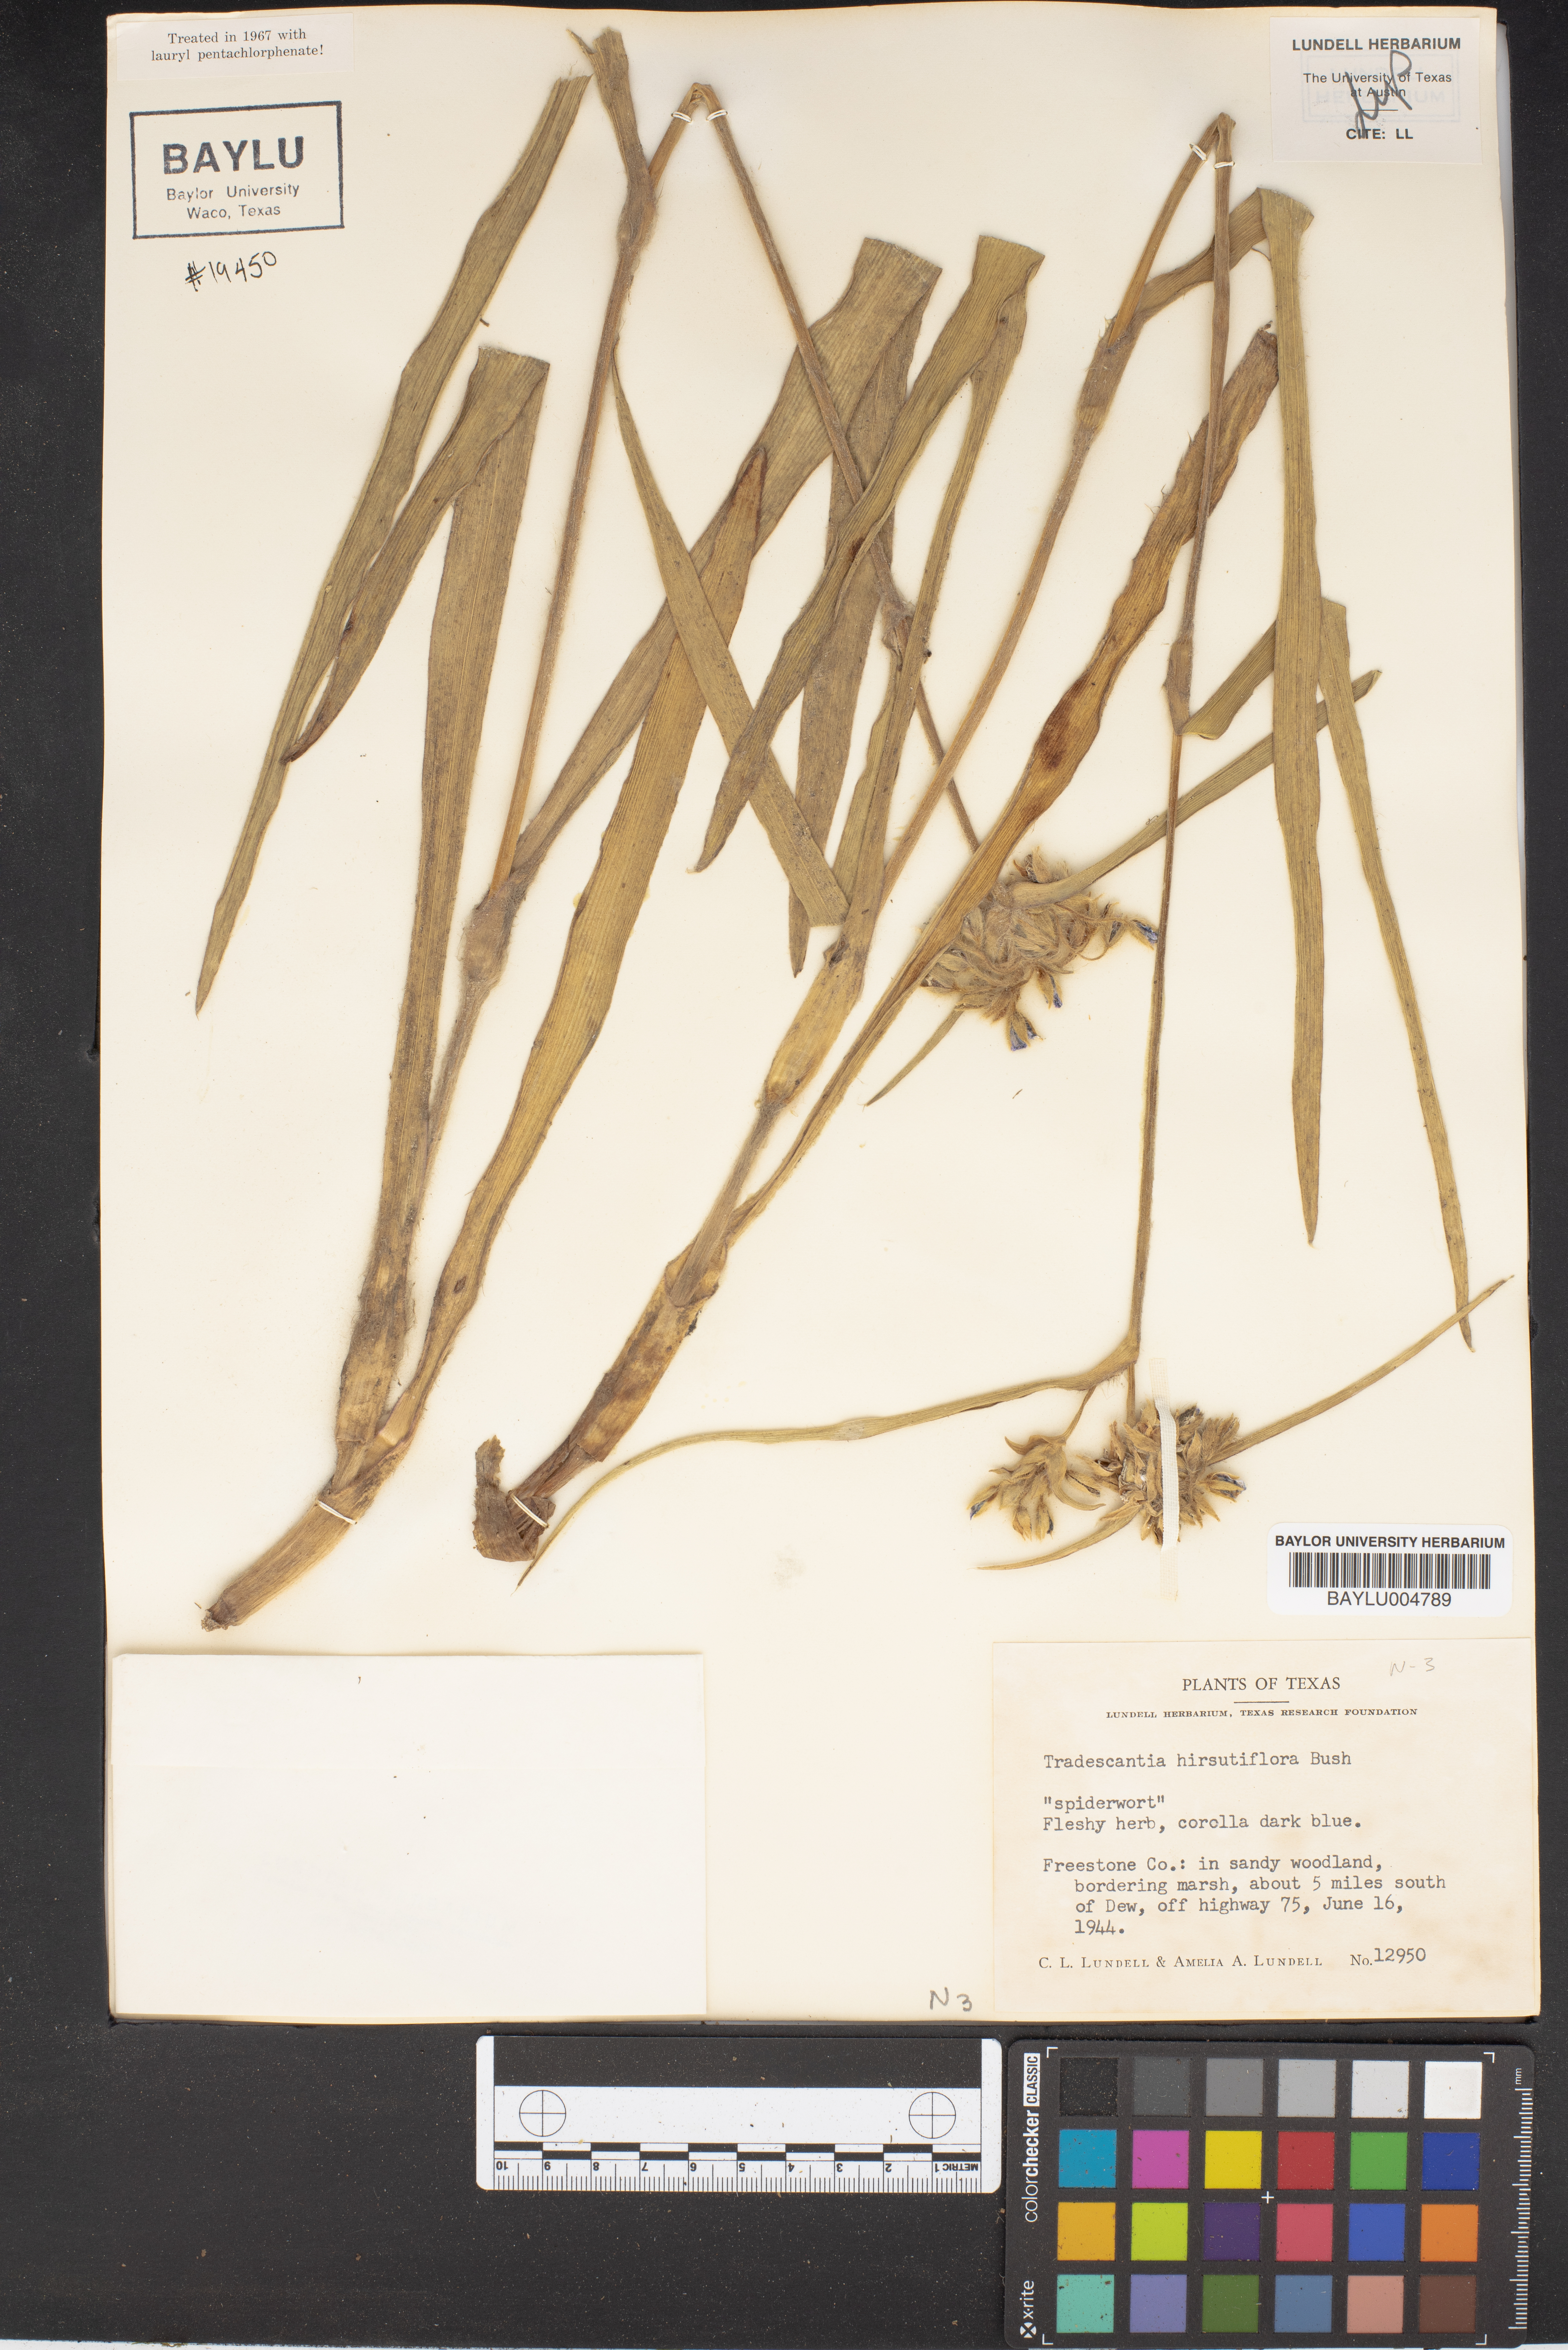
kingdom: Plantae
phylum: Tracheophyta
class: Liliopsida
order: Commelinales
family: Commelinaceae
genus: Tradescantia
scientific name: Tradescantia hirsutiflora
